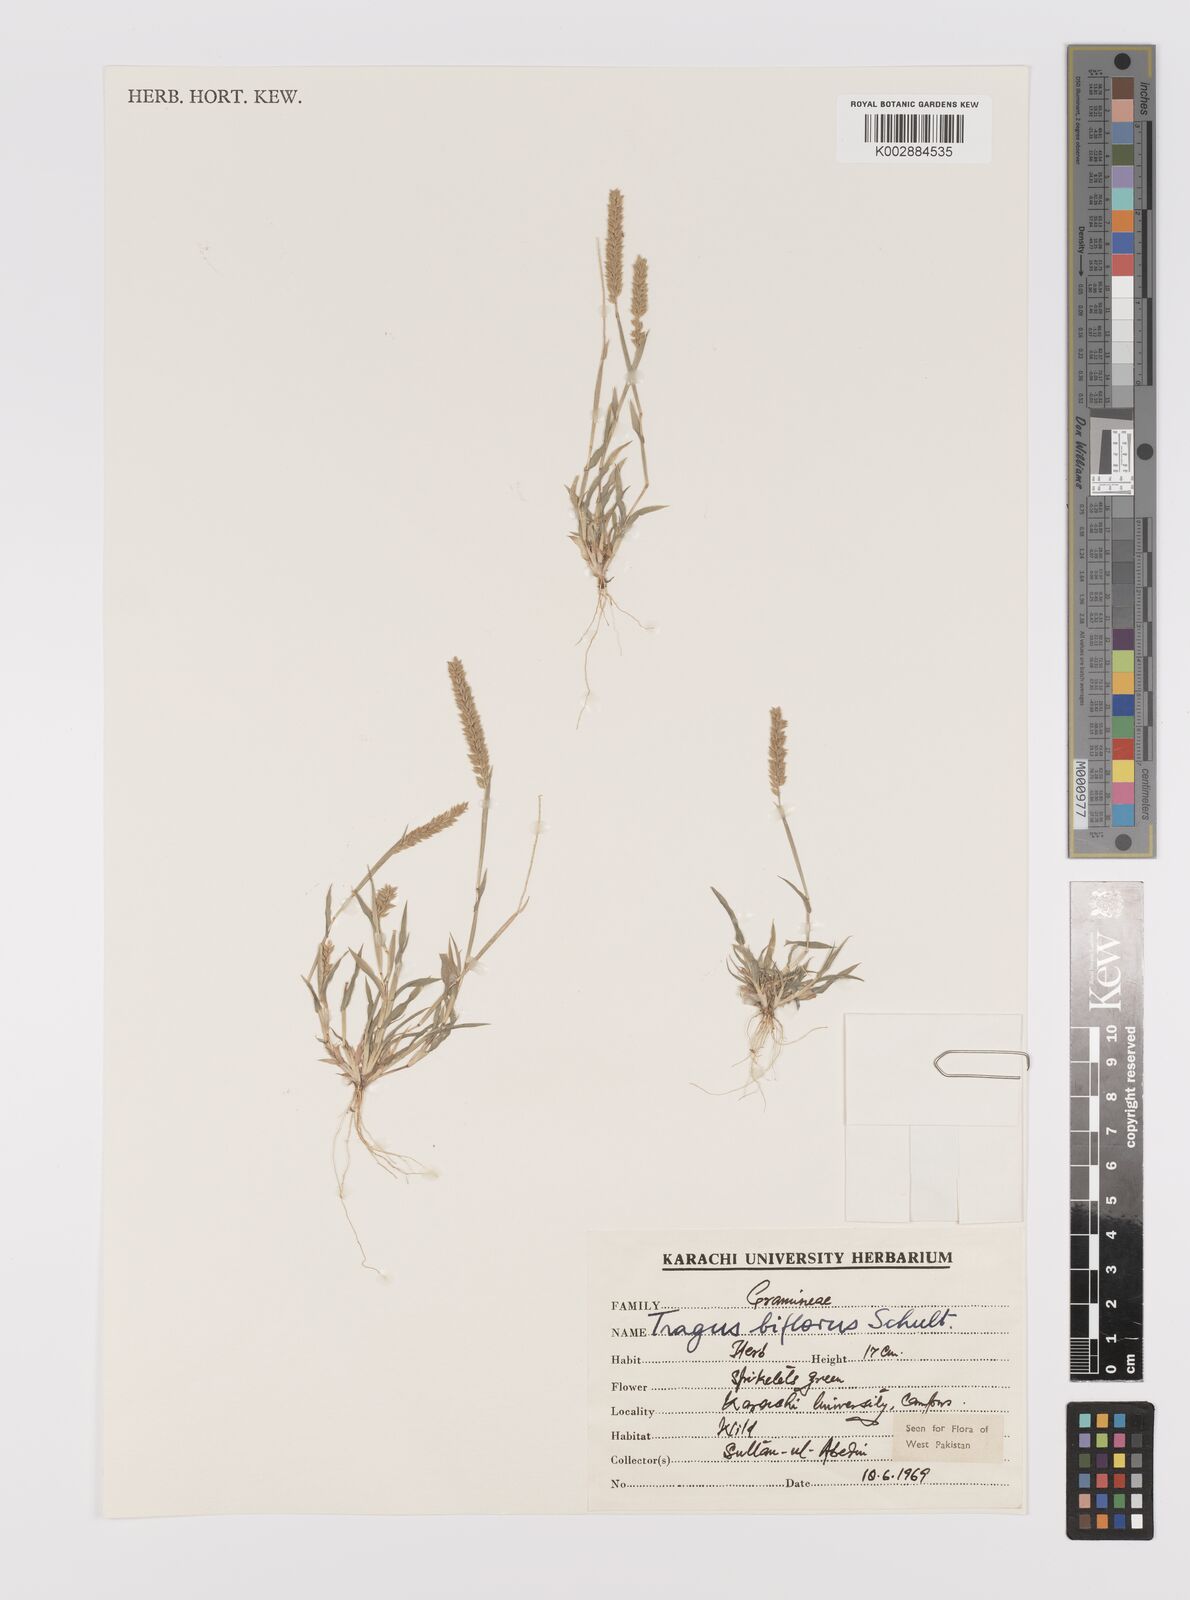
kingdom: Plantae
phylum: Tracheophyta
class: Liliopsida
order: Poales
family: Poaceae
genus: Tragus
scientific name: Tragus mongolorum
